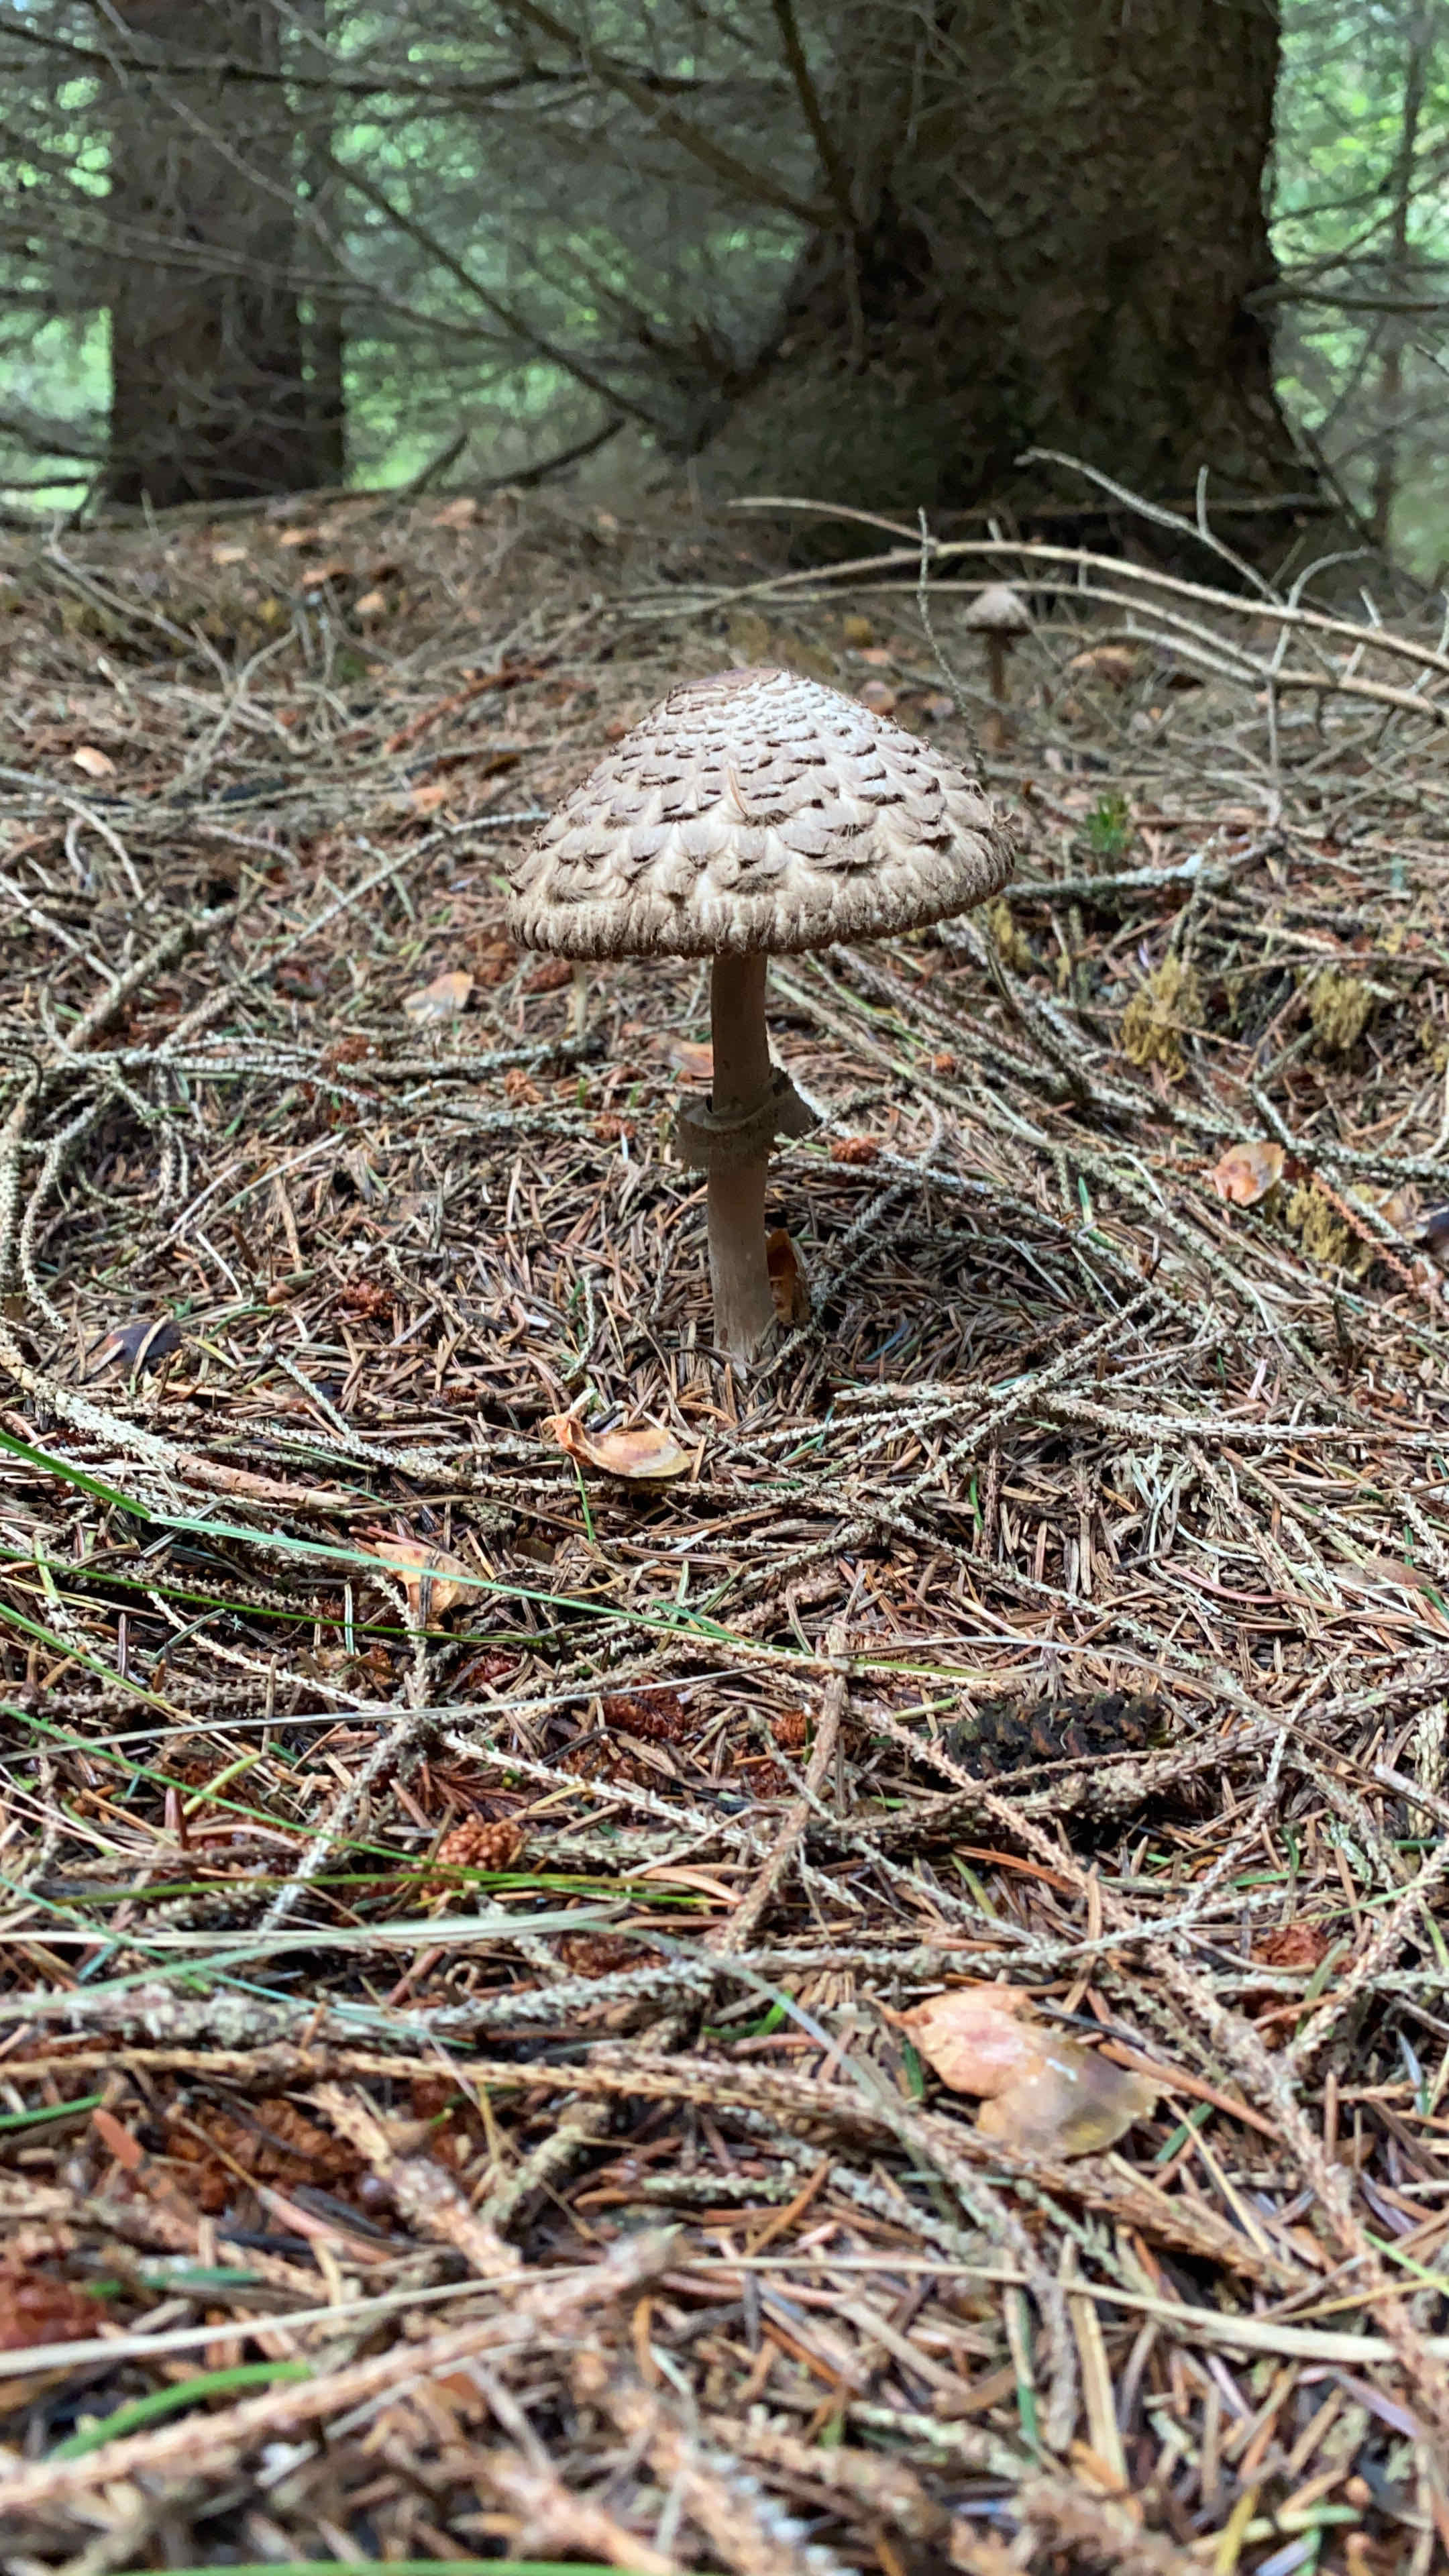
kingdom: Fungi
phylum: Basidiomycota
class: Agaricomycetes
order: Agaricales
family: Agaricaceae
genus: Chlorophyllum
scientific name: Chlorophyllum olivieri
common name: almindelig rabarberhat
